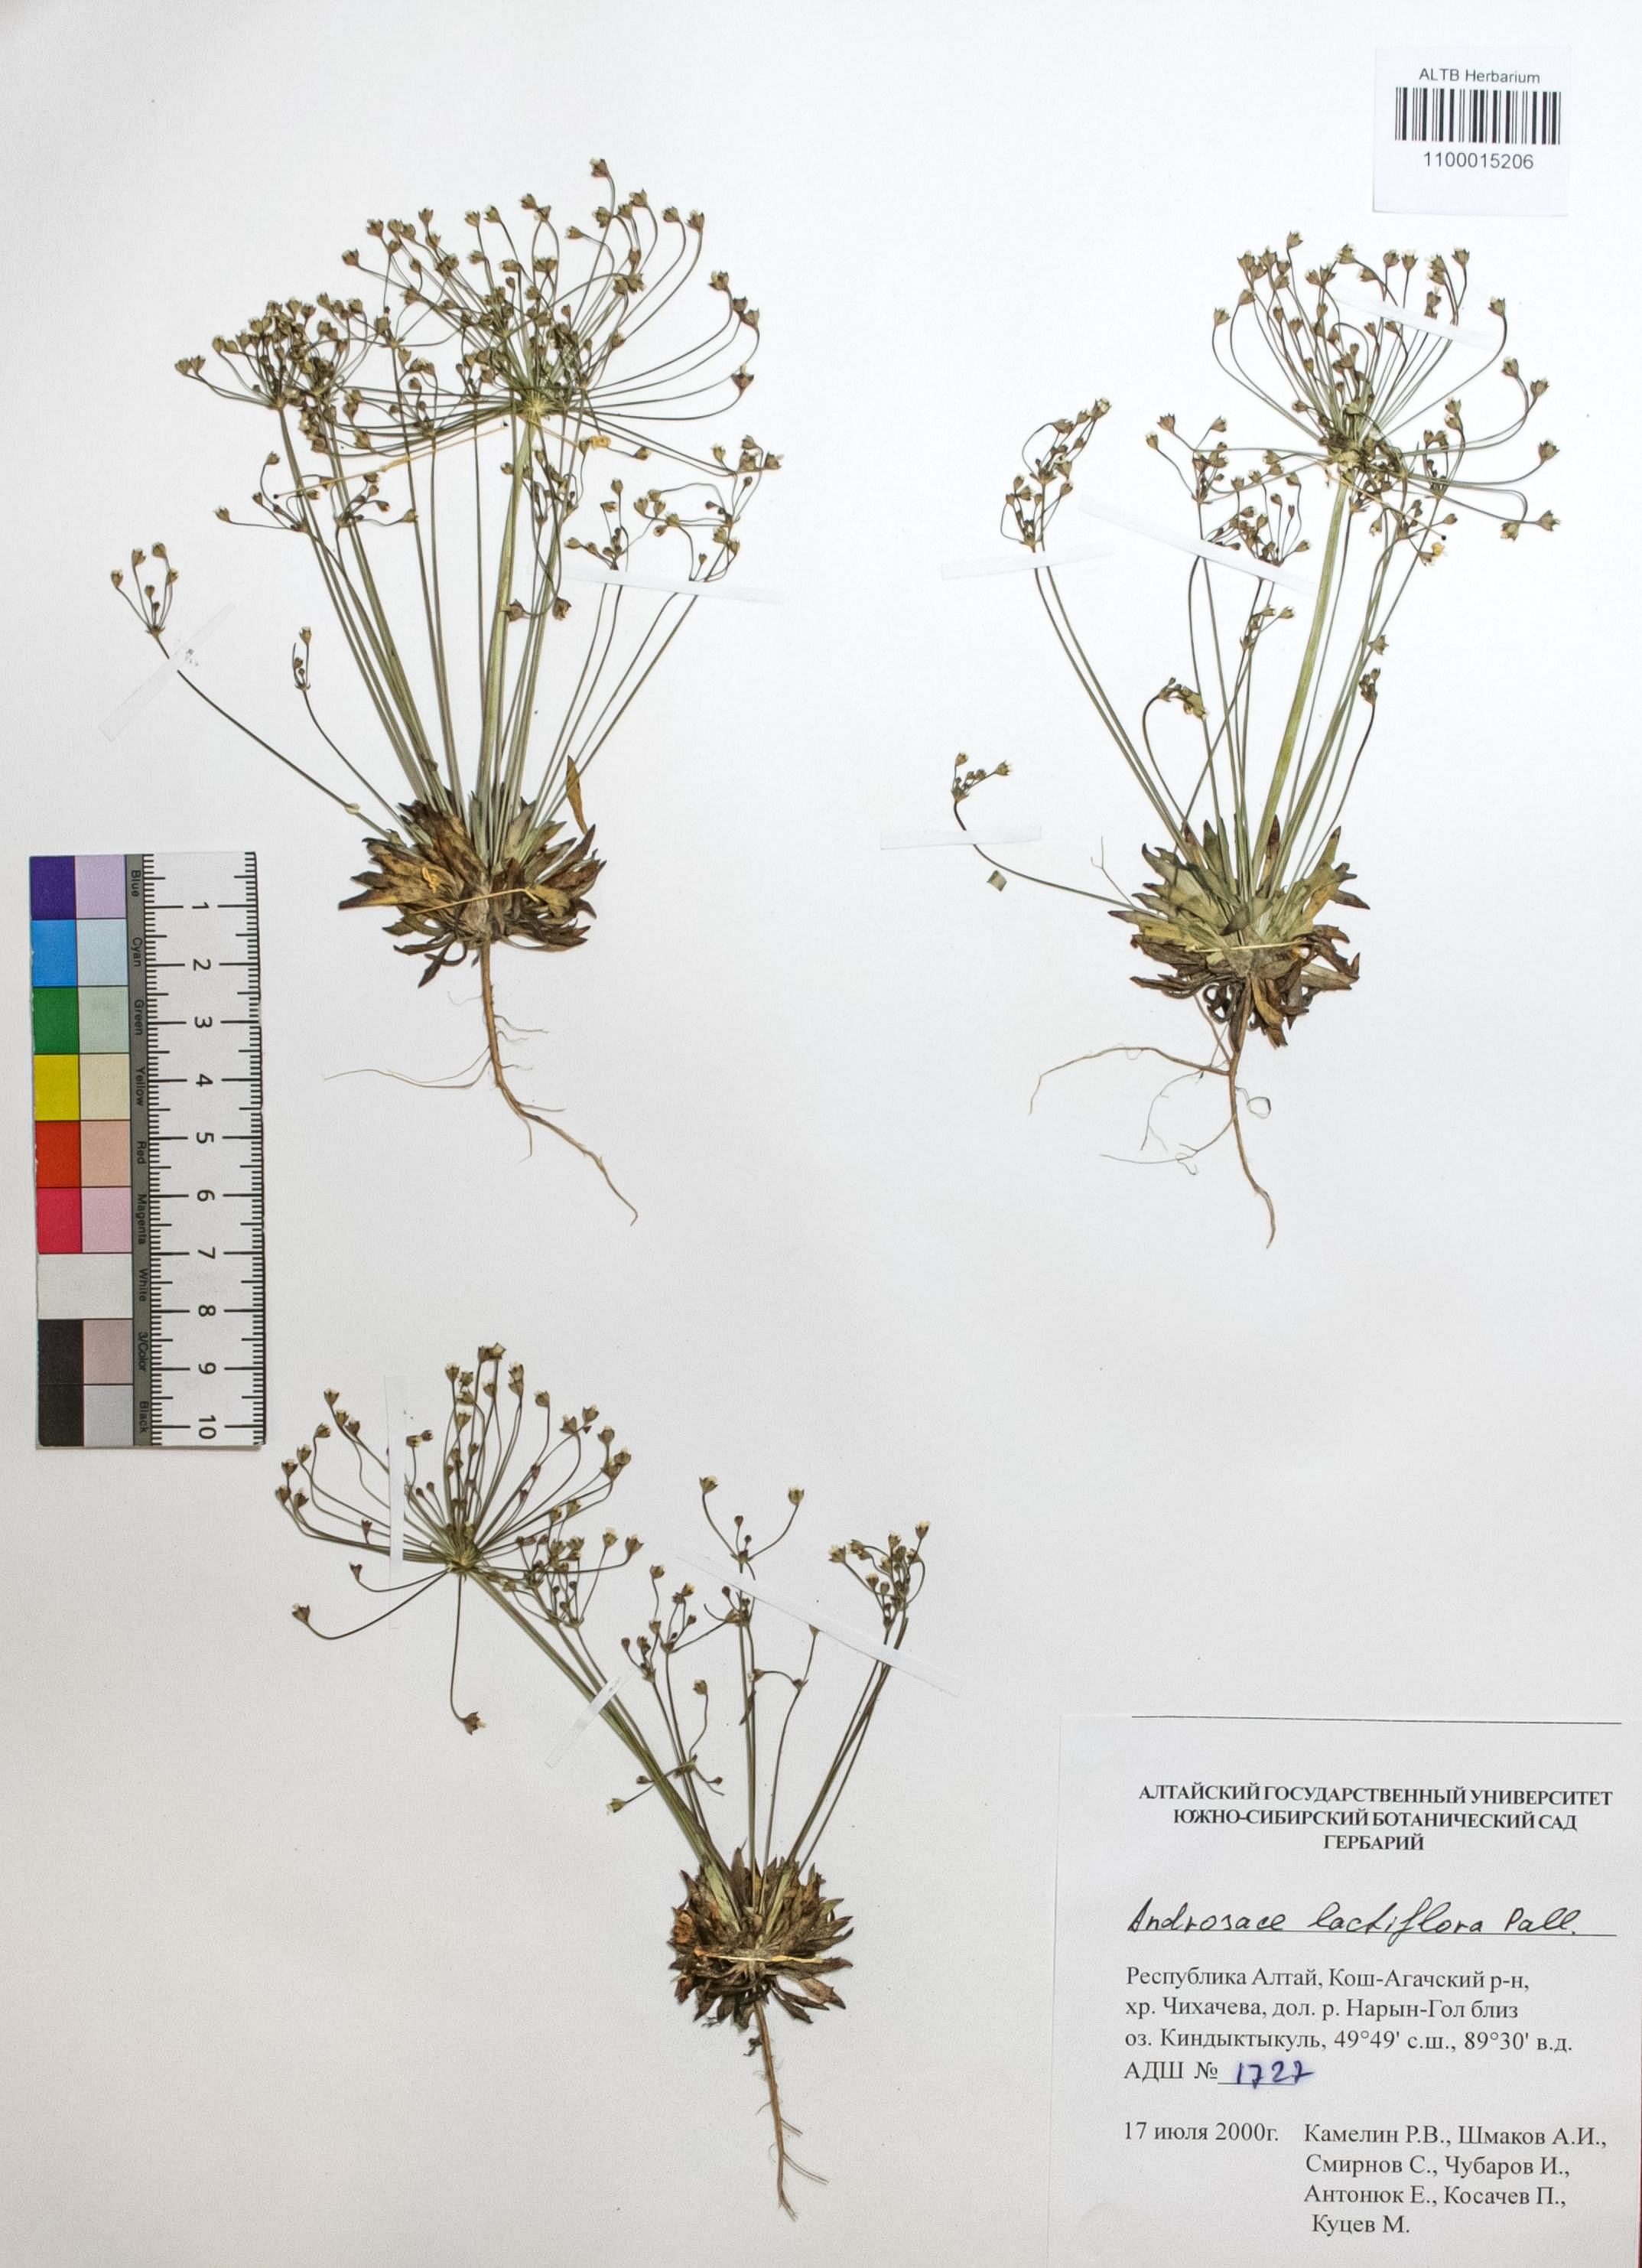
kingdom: Plantae
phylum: Tracheophyta
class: Magnoliopsida
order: Ericales
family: Primulaceae
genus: Androsace
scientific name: Androsace lactiflora
